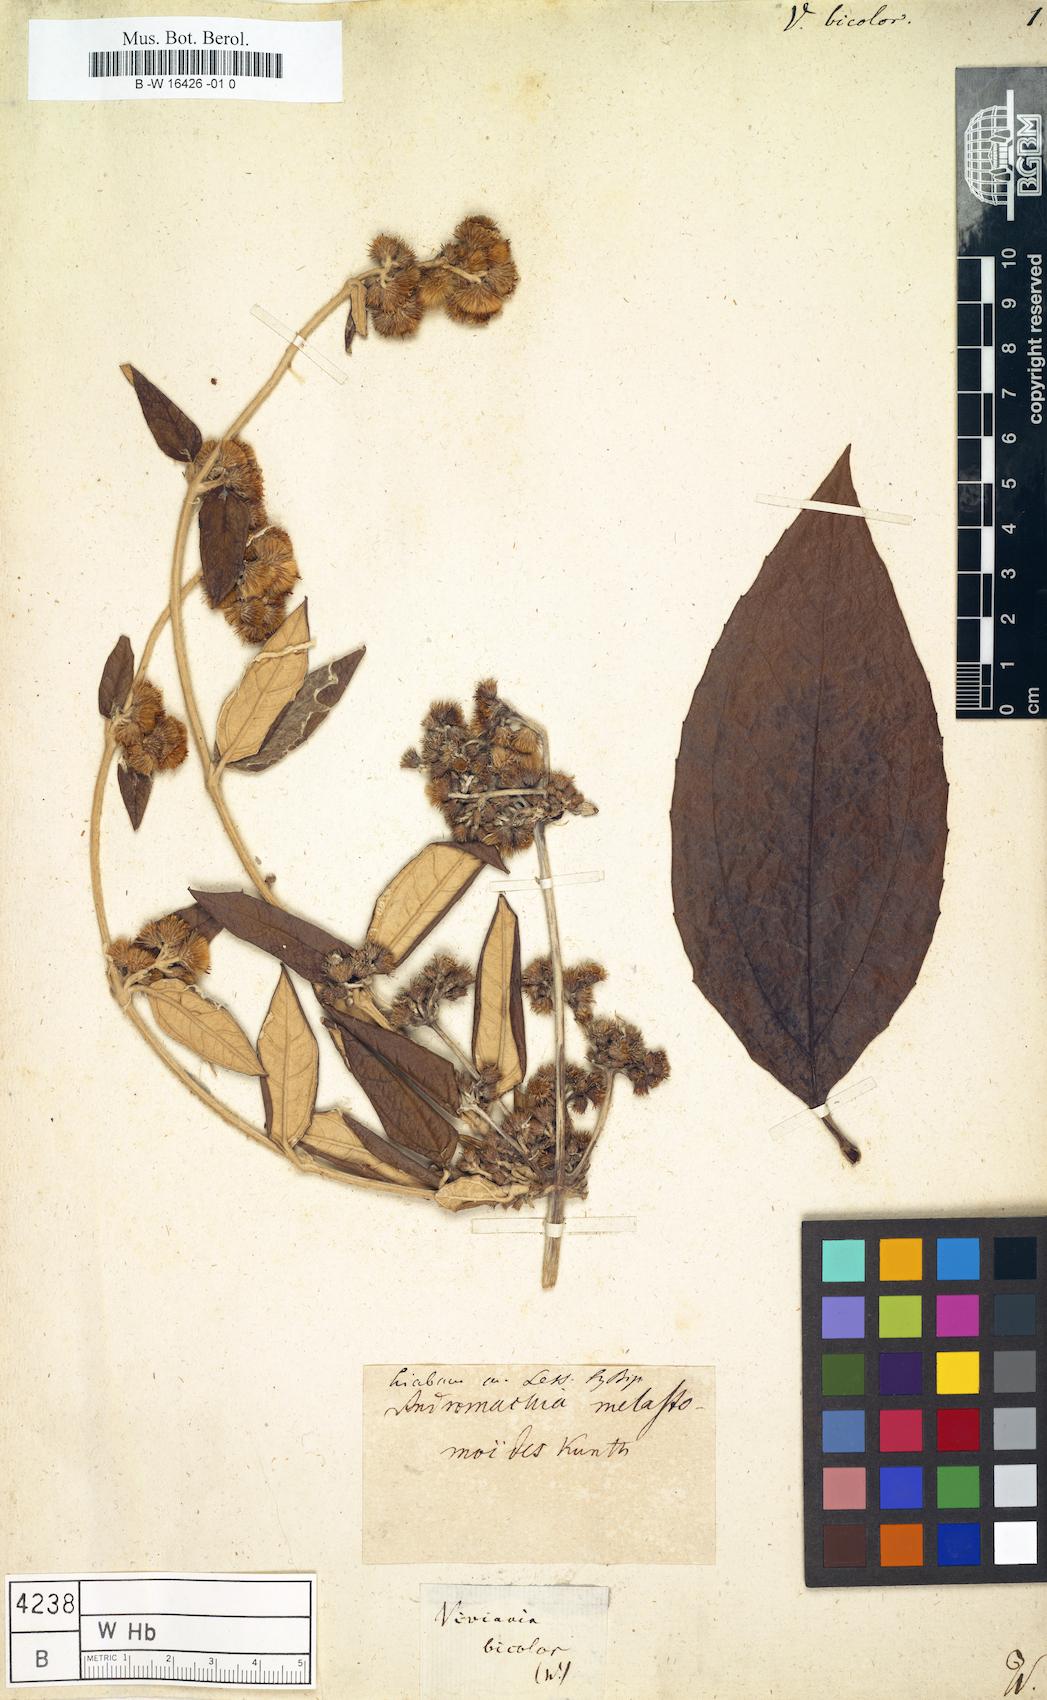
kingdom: Plantae
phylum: Tracheophyta
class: Magnoliopsida
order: Asterales
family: Asteraceae
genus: Liabum
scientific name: Liabum melastomoides
